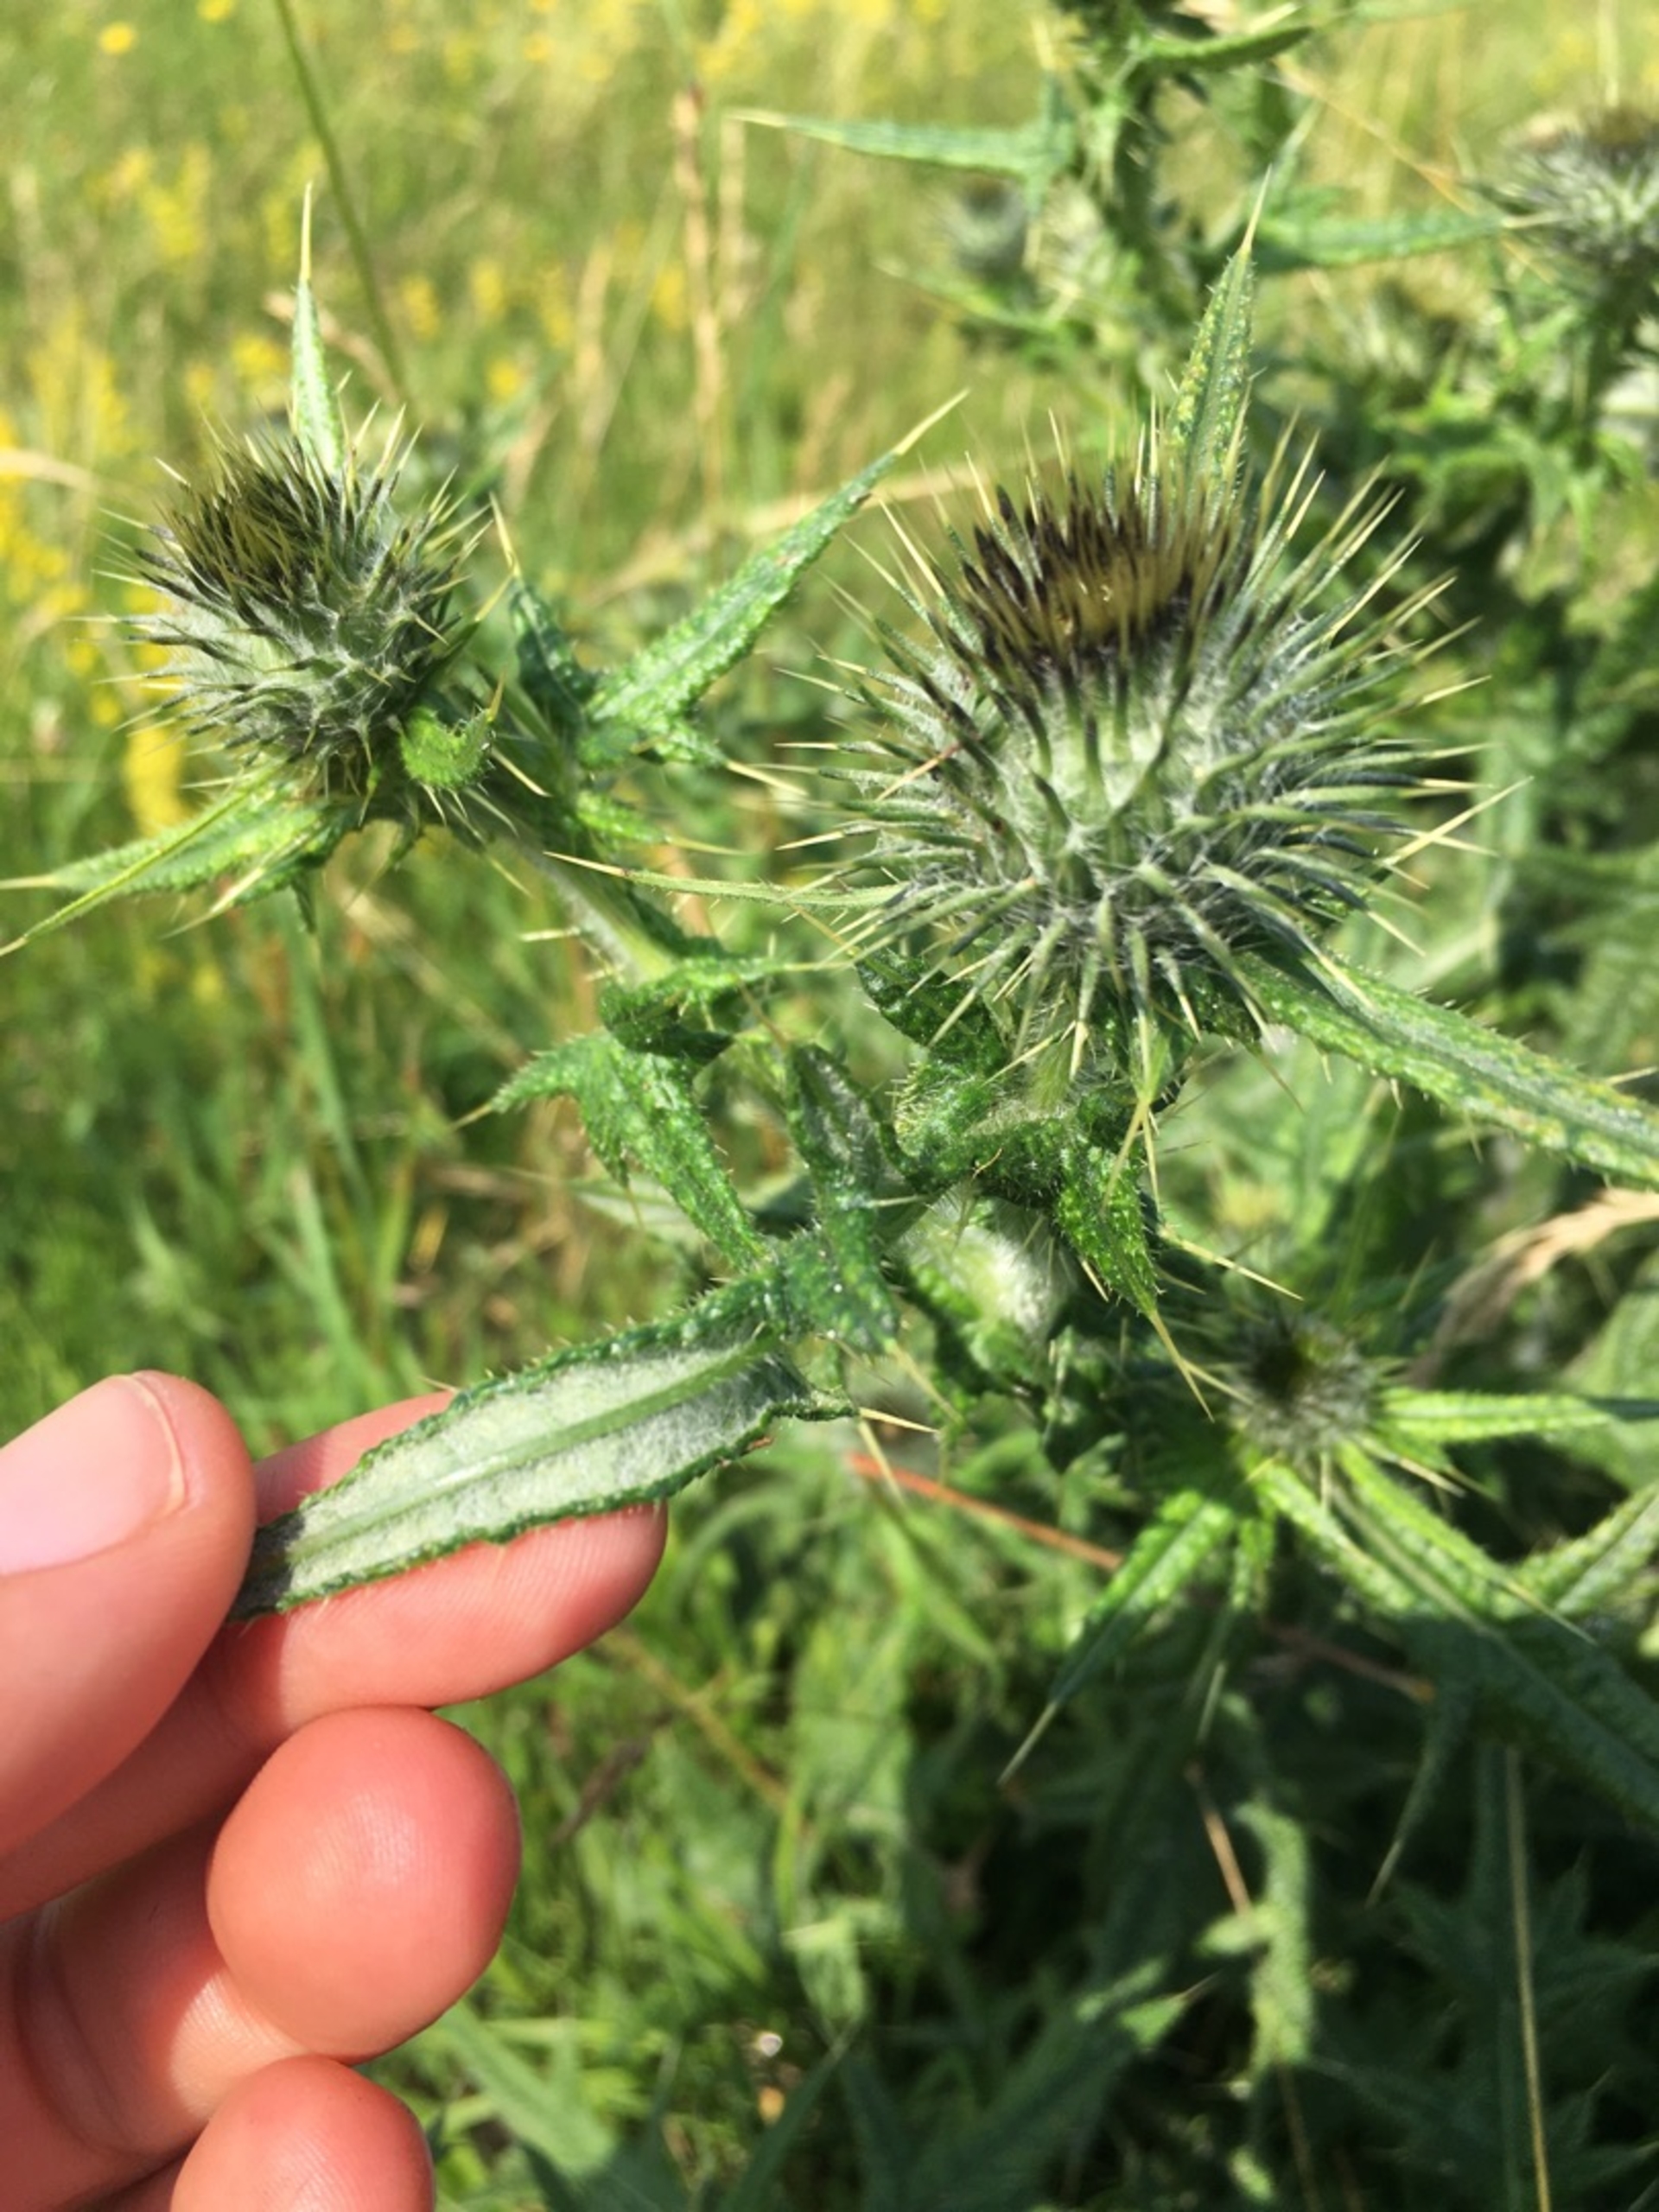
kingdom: Plantae
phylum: Tracheophyta
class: Magnoliopsida
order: Asterales
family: Asteraceae
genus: Cirsium
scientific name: Cirsium vulgare
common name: Horse-tidsel
